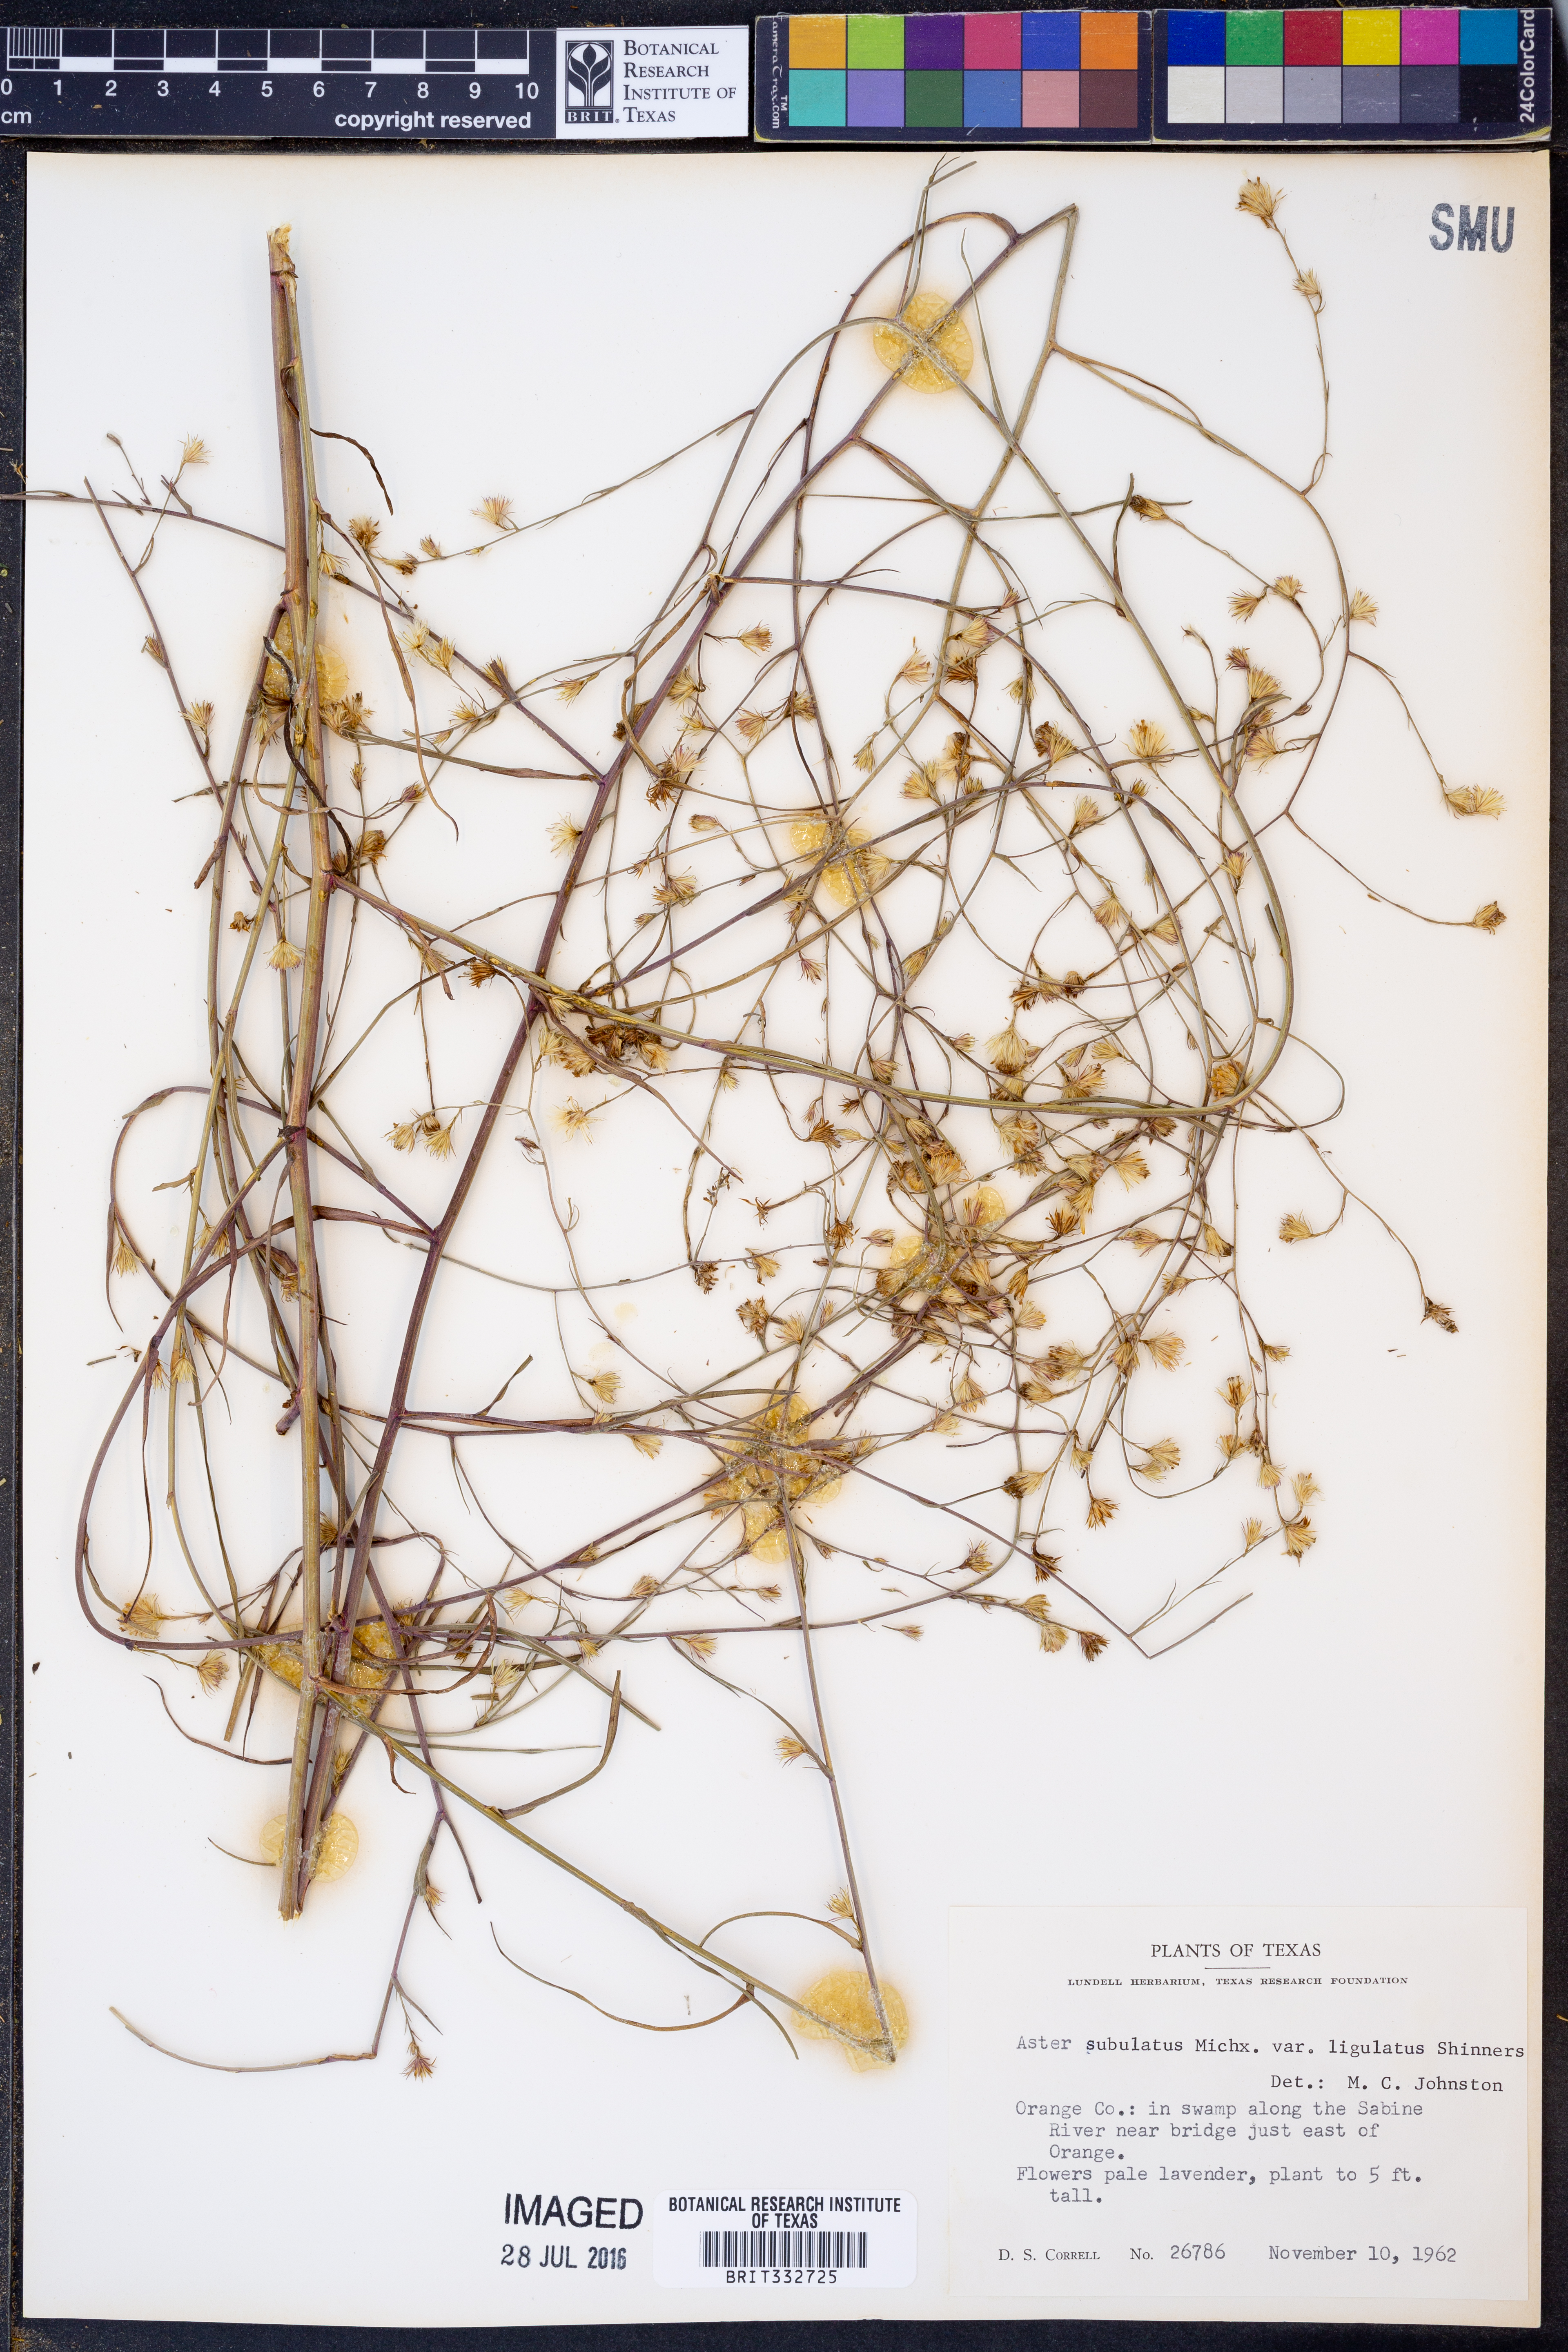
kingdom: Plantae
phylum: Tracheophyta
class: Magnoliopsida
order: Asterales
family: Asteraceae
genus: Symphyotrichum
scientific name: Symphyotrichum subulatum
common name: Annual saltmarsh aster
